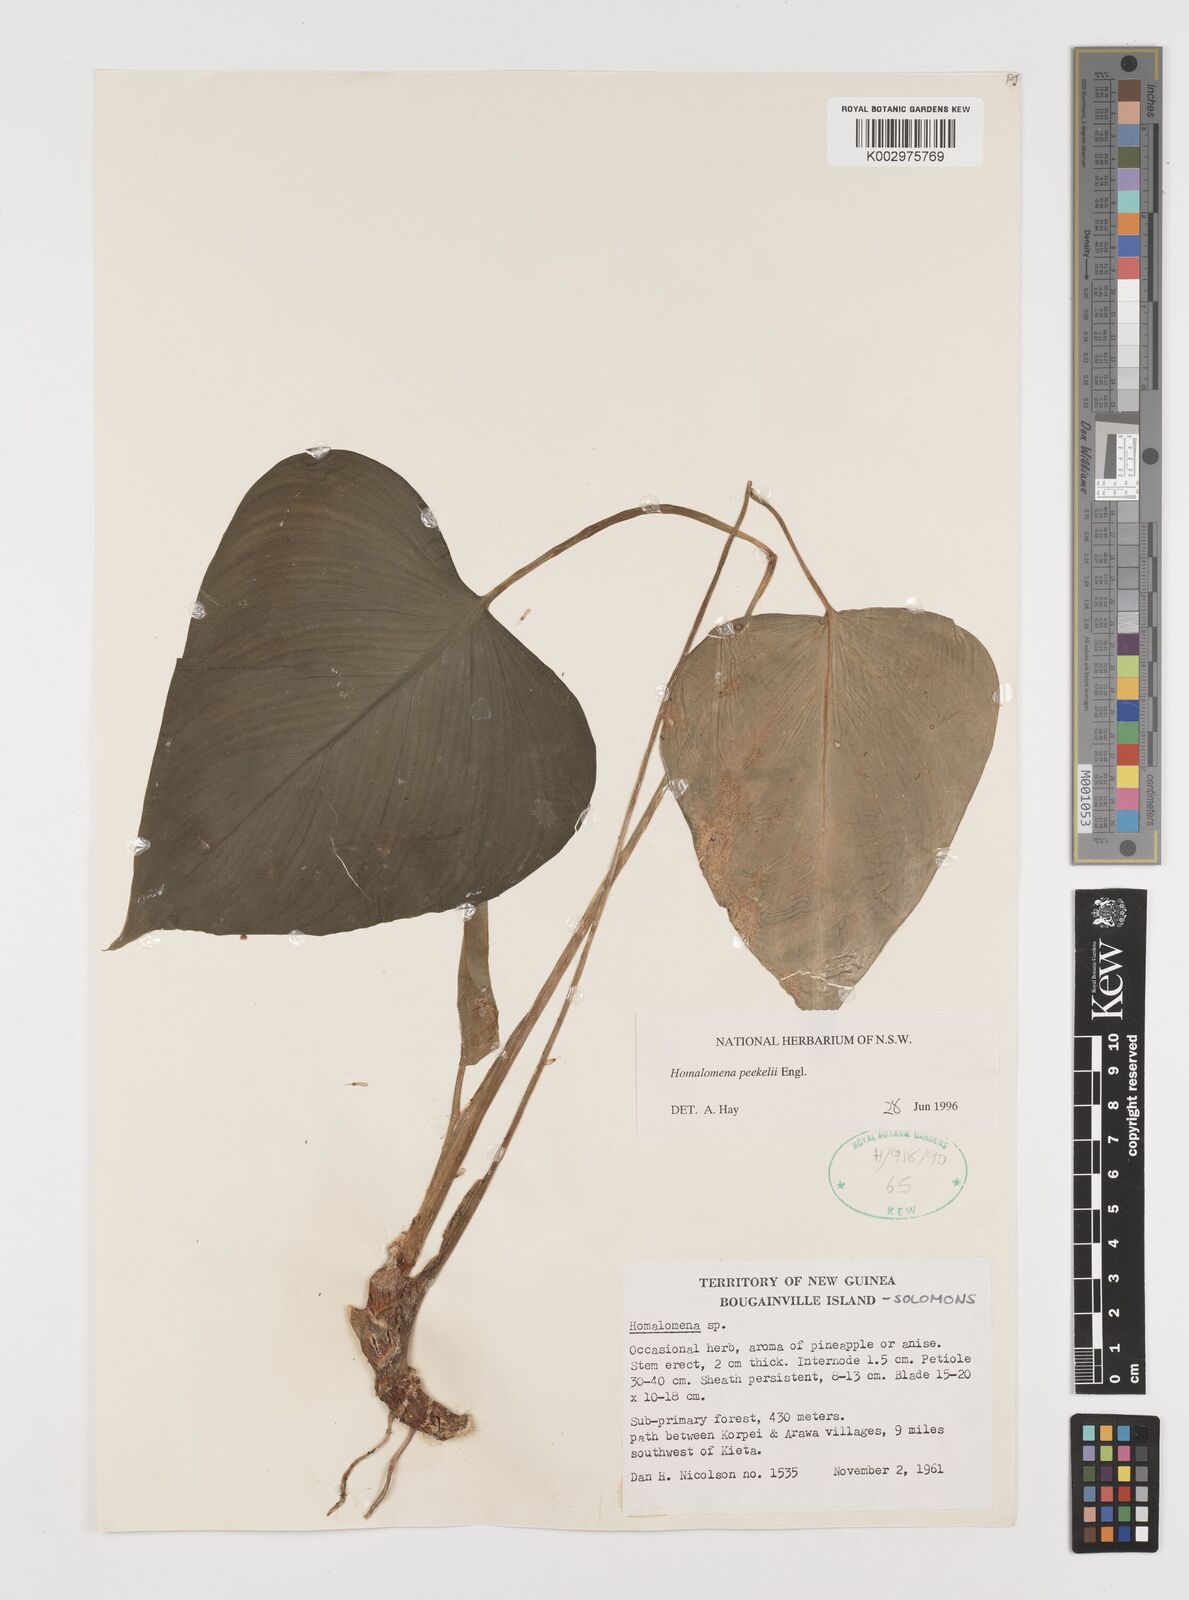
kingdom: Plantae
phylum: Tracheophyta
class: Liliopsida
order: Alismatales
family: Araceae
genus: Homalomena
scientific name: Homalomena peekelii
